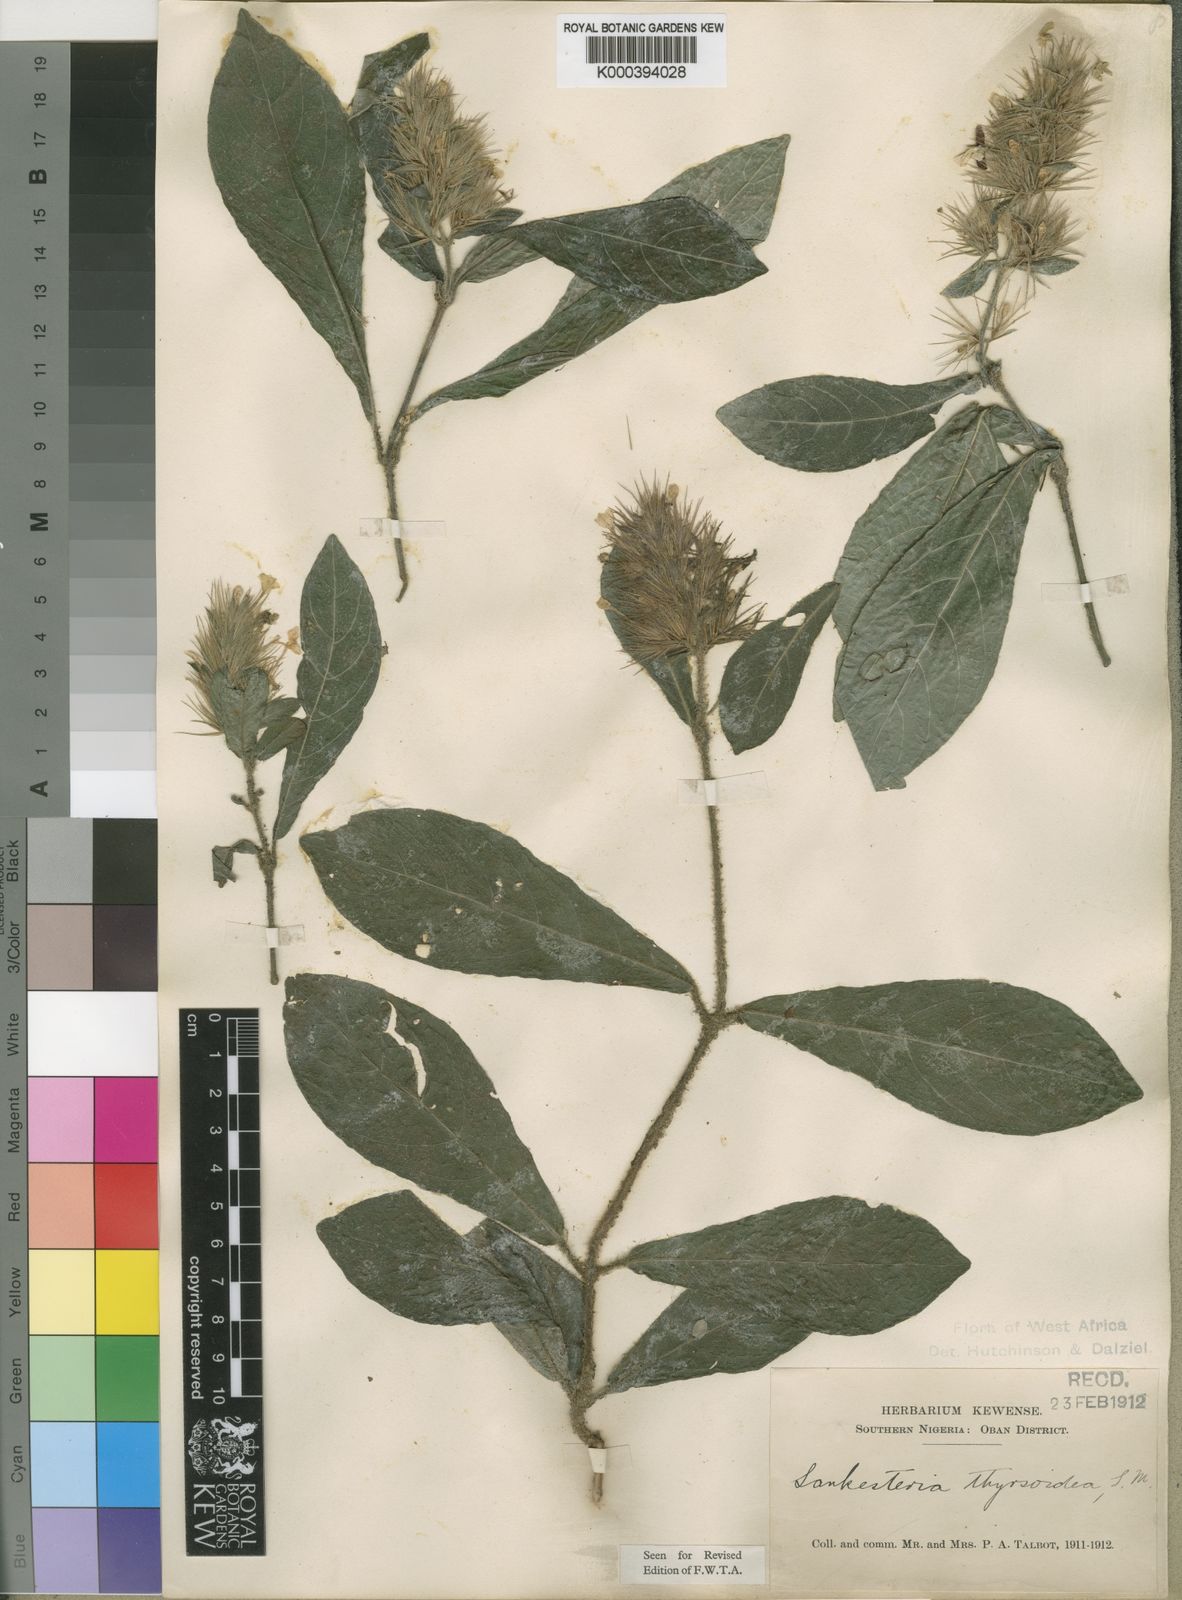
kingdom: Plantae
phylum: Tracheophyta
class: Magnoliopsida
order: Lamiales
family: Acanthaceae
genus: Lankesteria
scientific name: Lankesteria thyrsoidea
